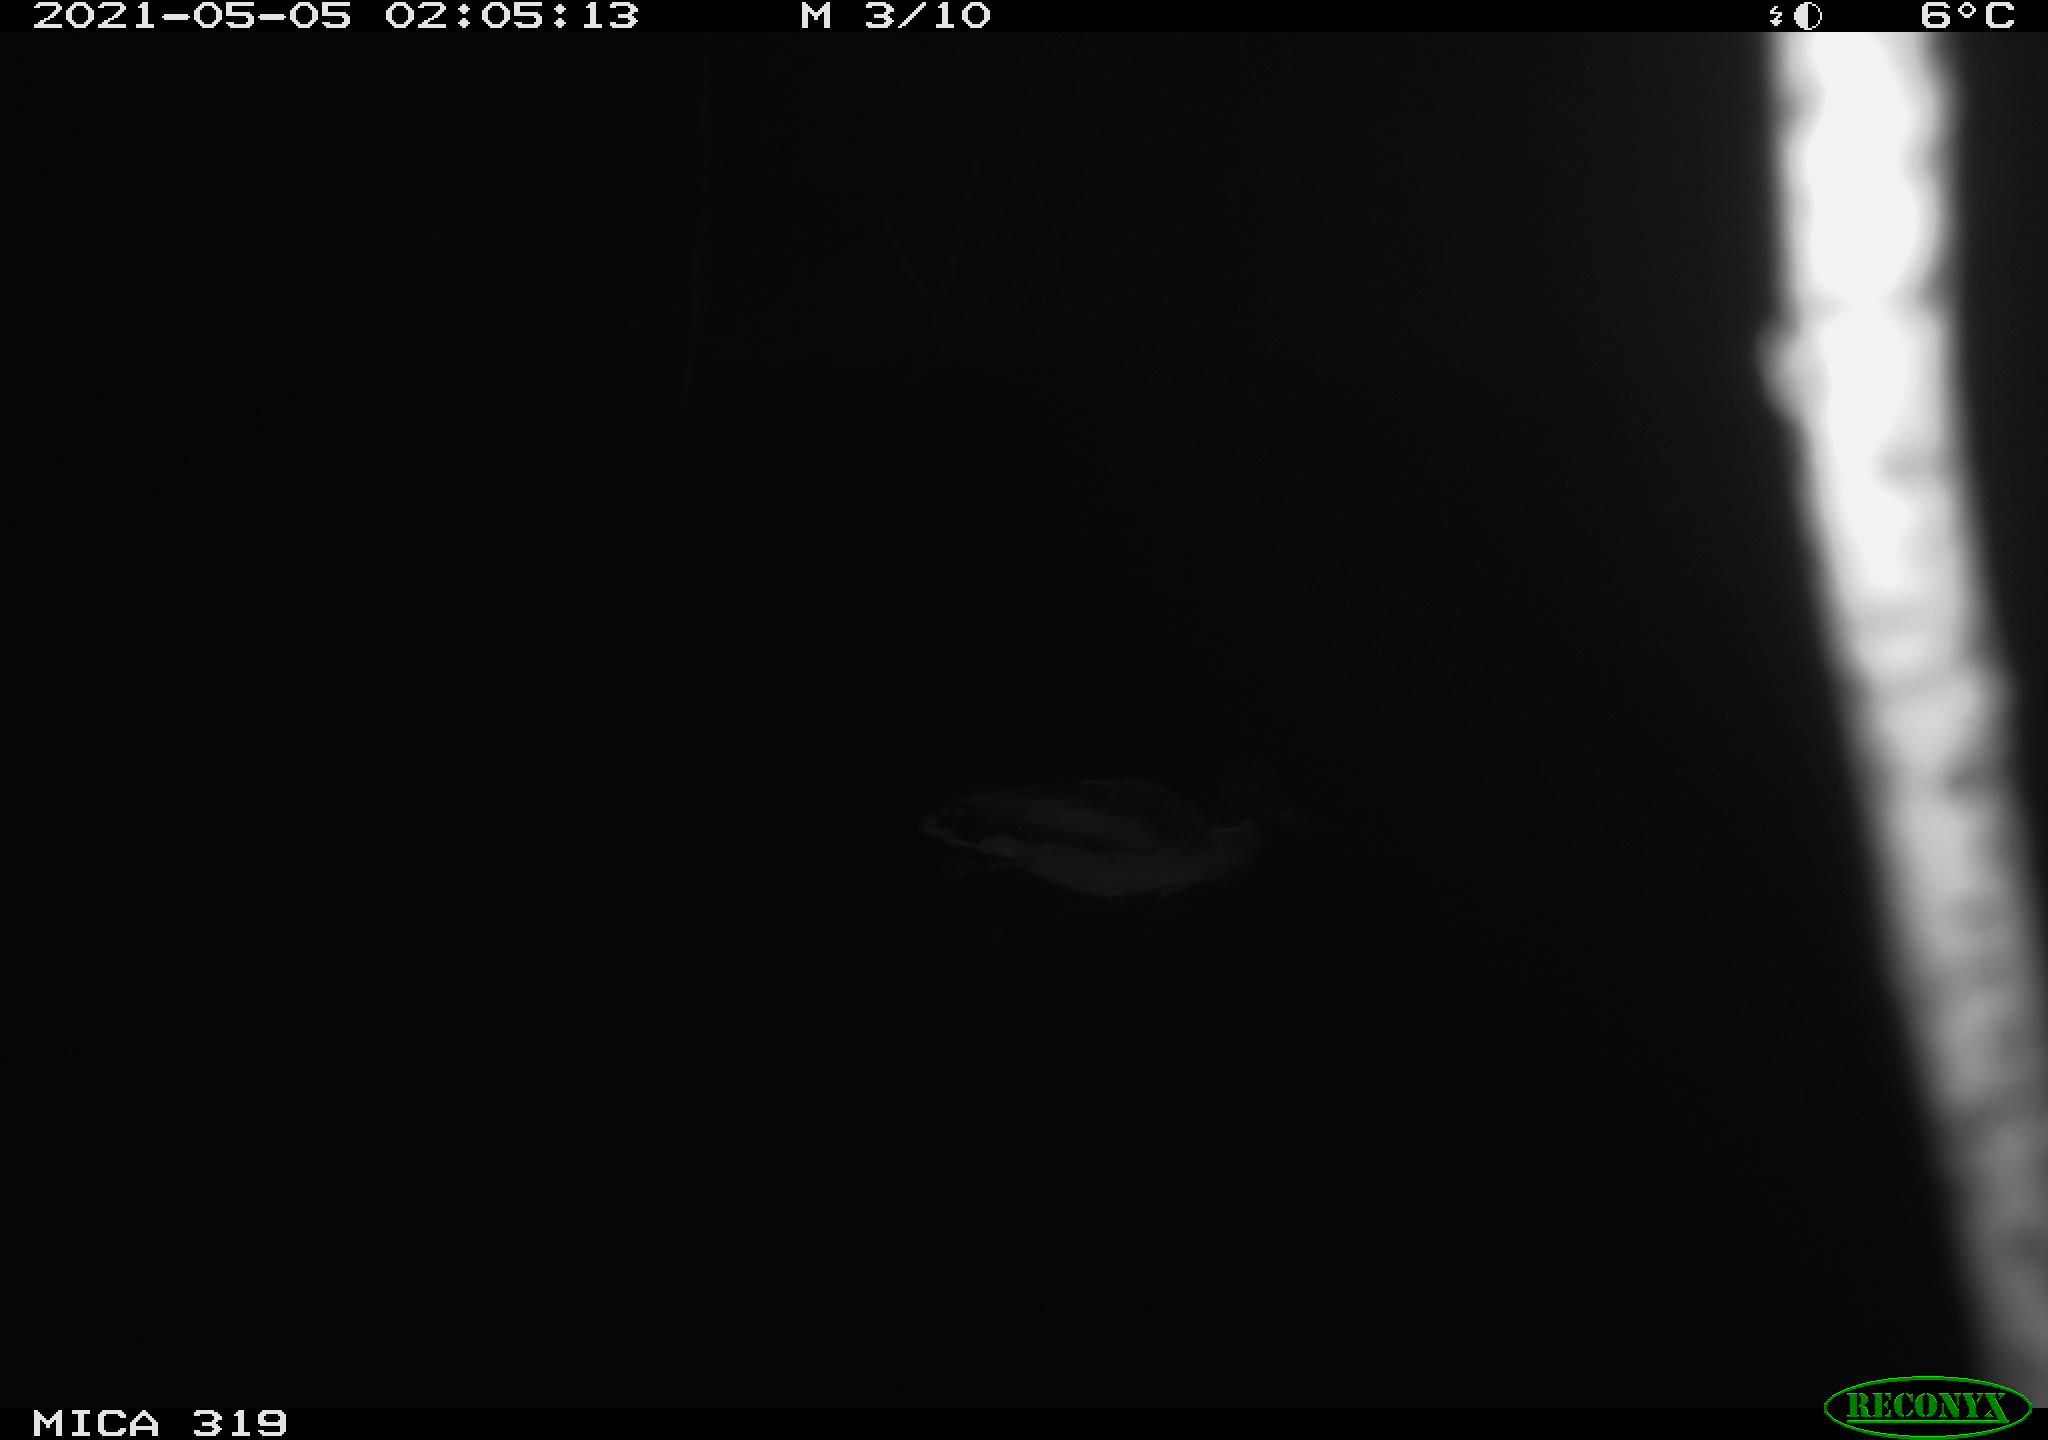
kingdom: Animalia
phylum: Chordata
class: Aves
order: Anseriformes
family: Anatidae
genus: Anas
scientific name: Anas platyrhynchos
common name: Mallard
